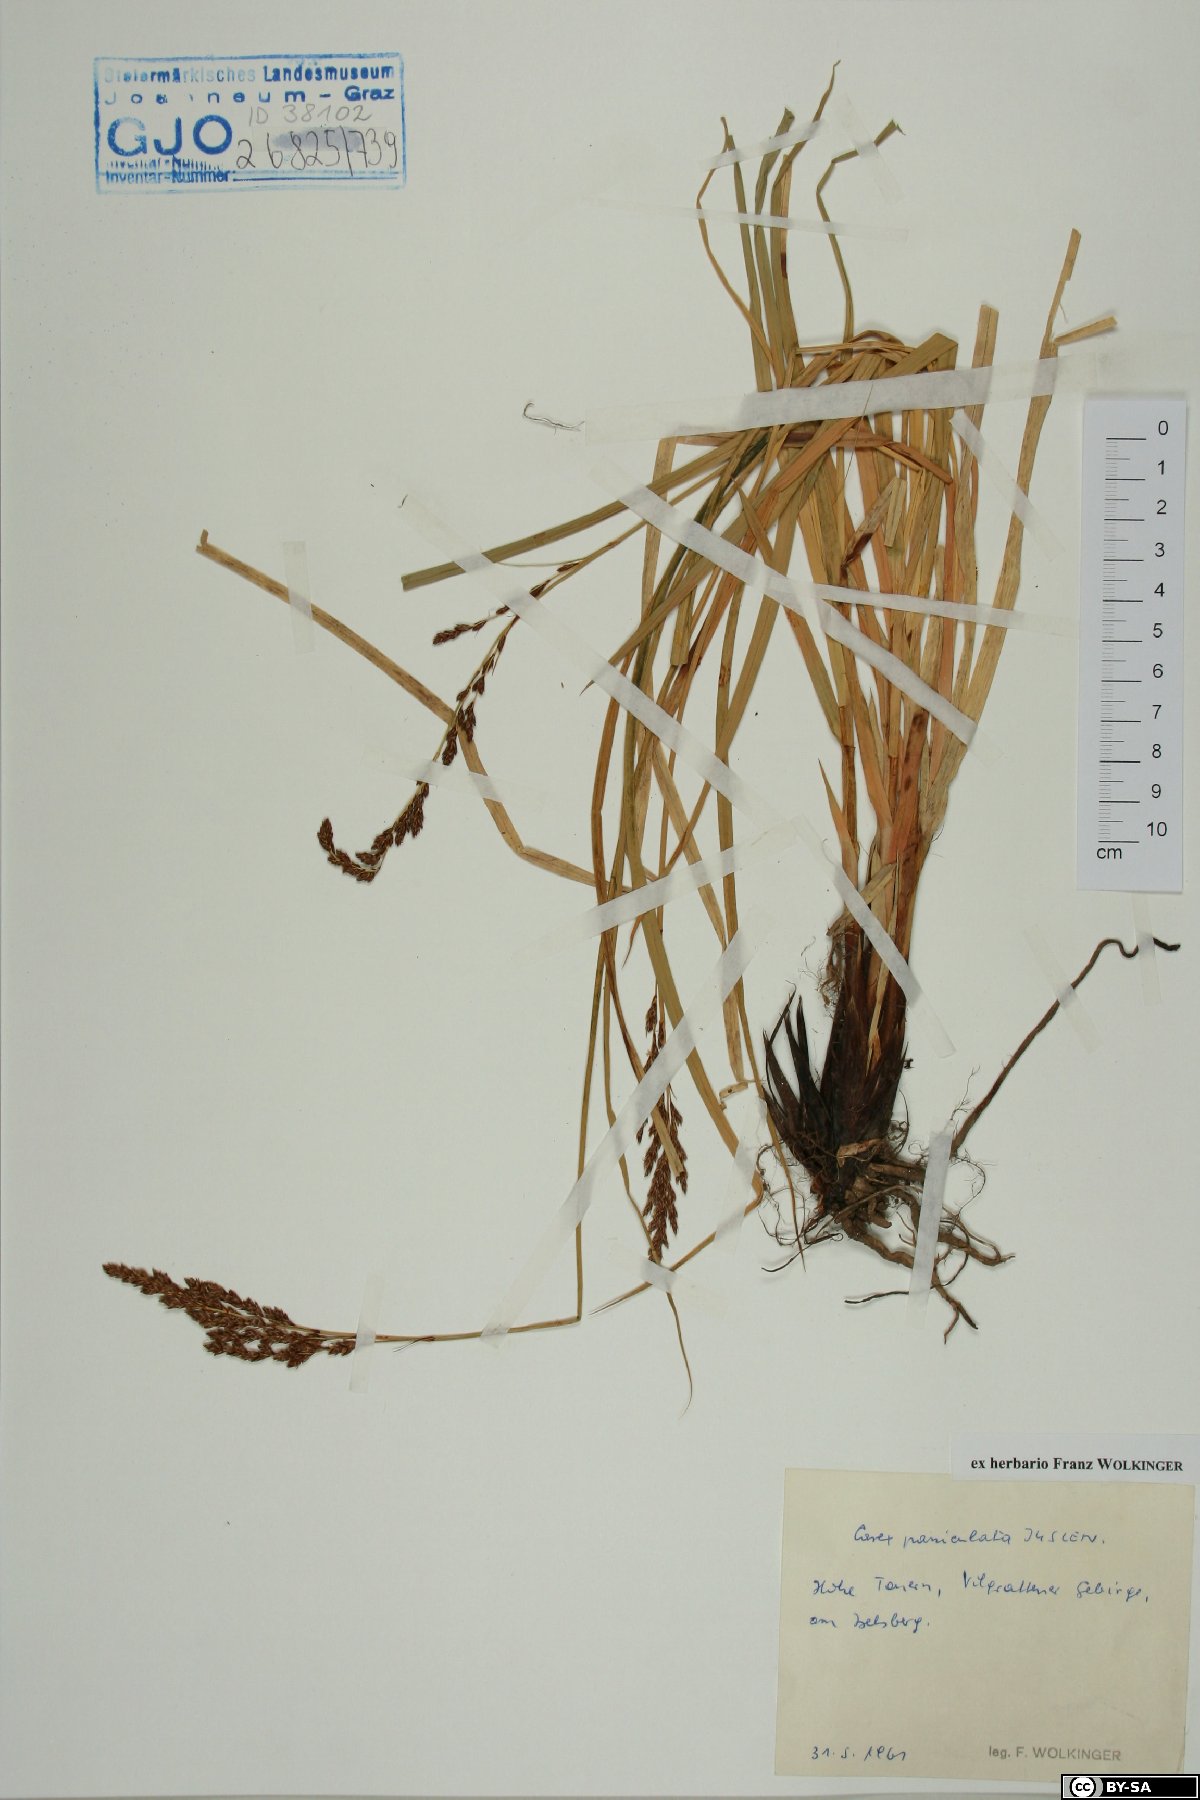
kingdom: Plantae
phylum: Tracheophyta
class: Liliopsida
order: Poales
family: Cyperaceae
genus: Carex
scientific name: Carex paniculata
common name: Greater tussock-sedge
